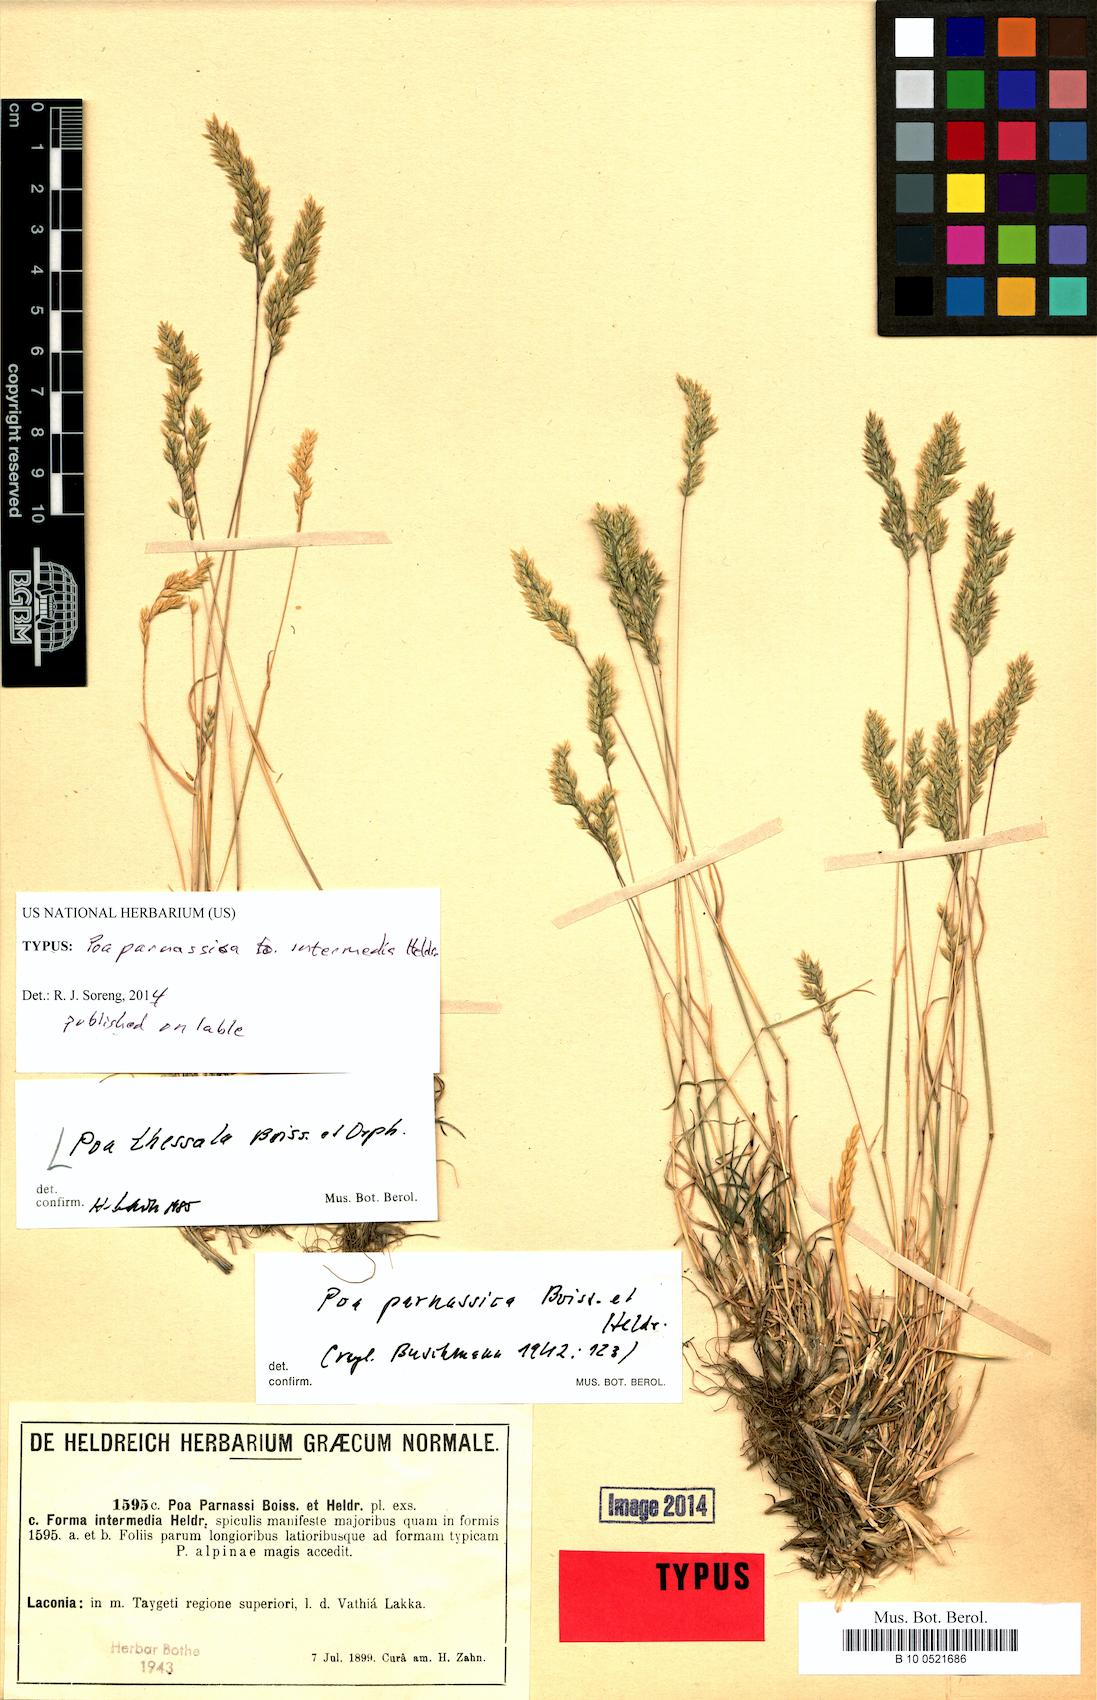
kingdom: Plantae
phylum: Tracheophyta
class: Liliopsida
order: Poales
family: Poaceae
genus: Poa
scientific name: Poa thessala
